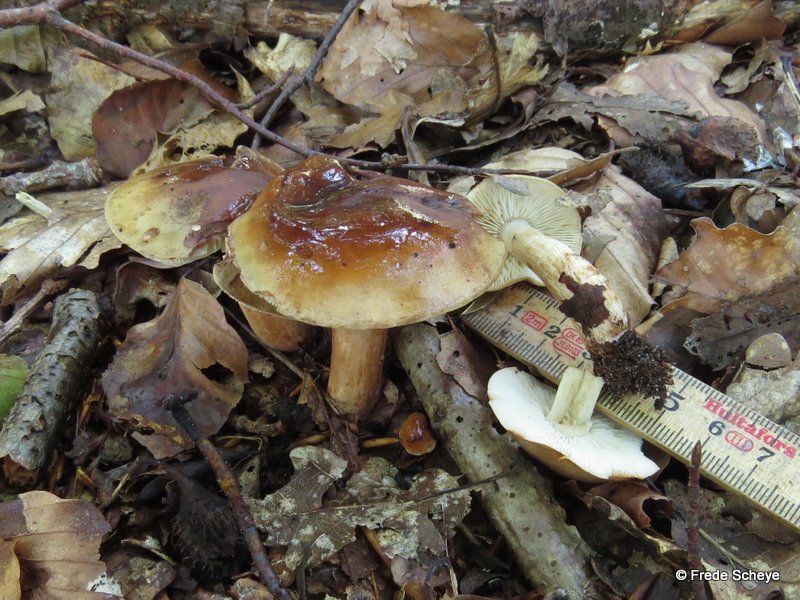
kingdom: Fungi
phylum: Basidiomycota
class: Agaricomycetes
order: Agaricales
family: Tricholomataceae
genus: Tricholoma
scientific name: Tricholoma ustale
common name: sveden ridderhat
